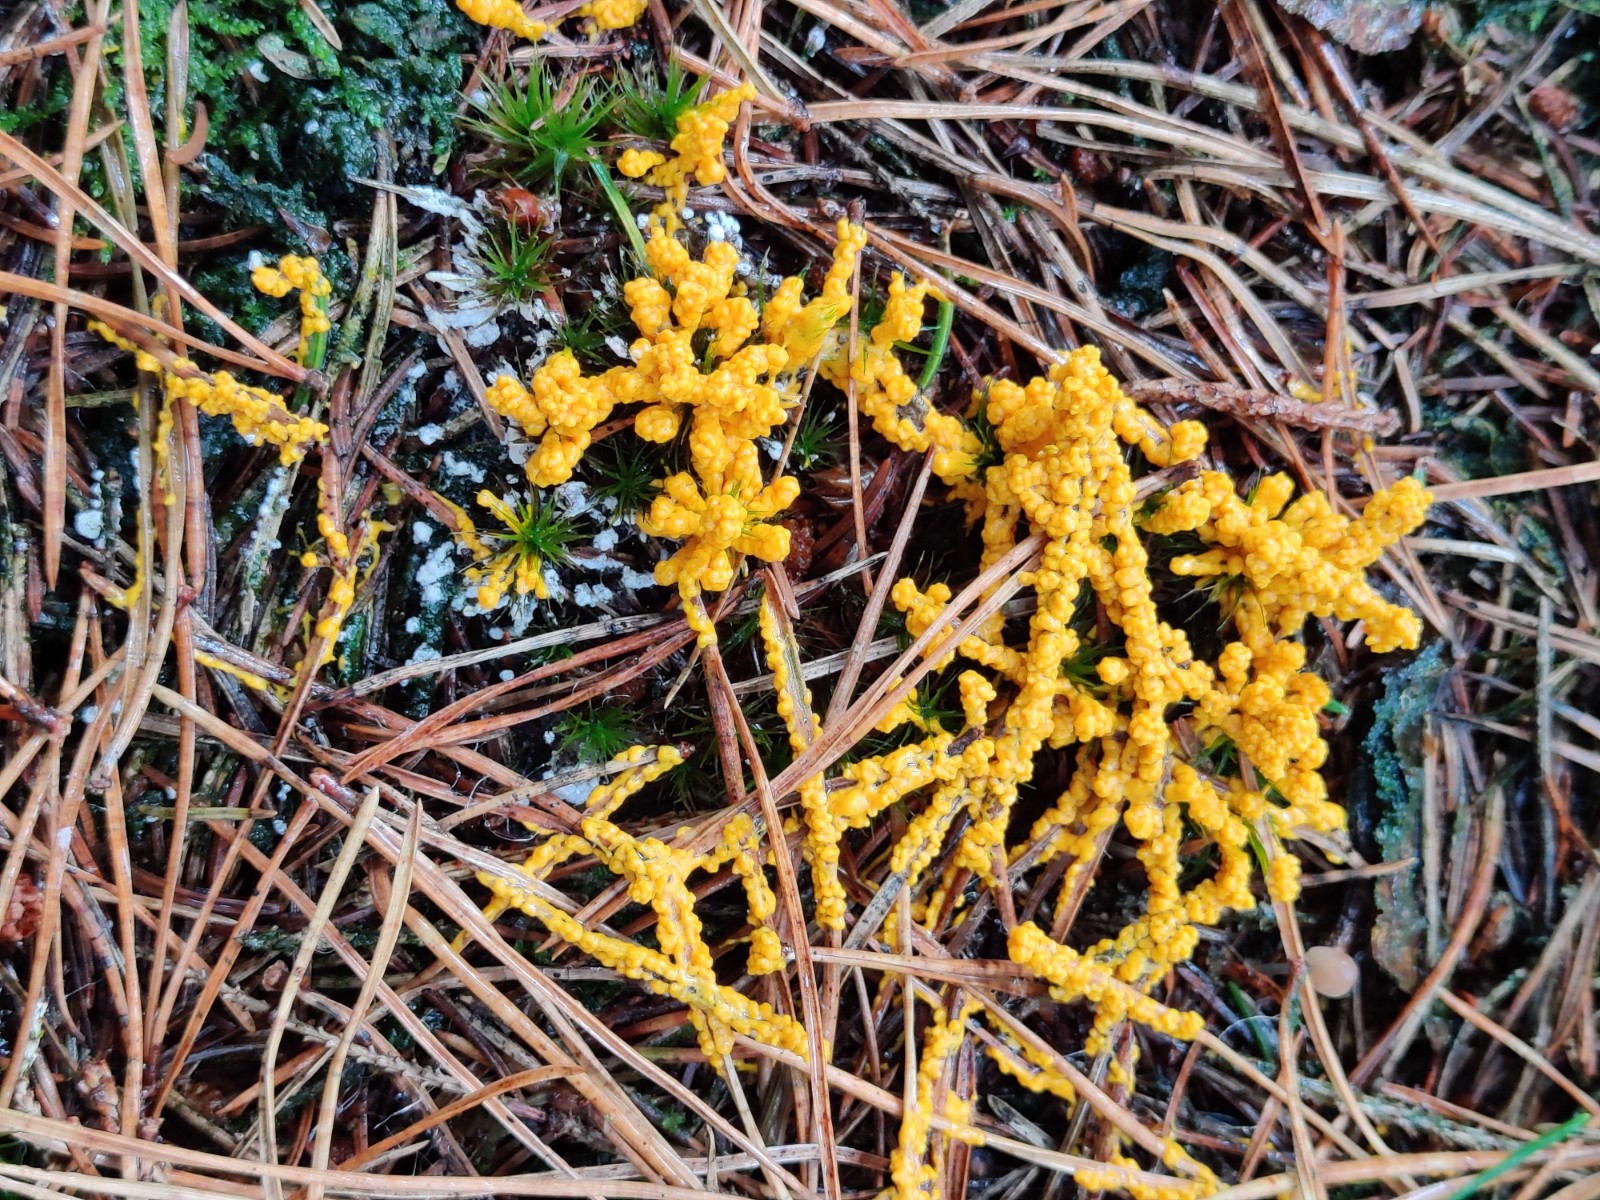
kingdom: Protozoa
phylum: Mycetozoa
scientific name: Mycetozoa
